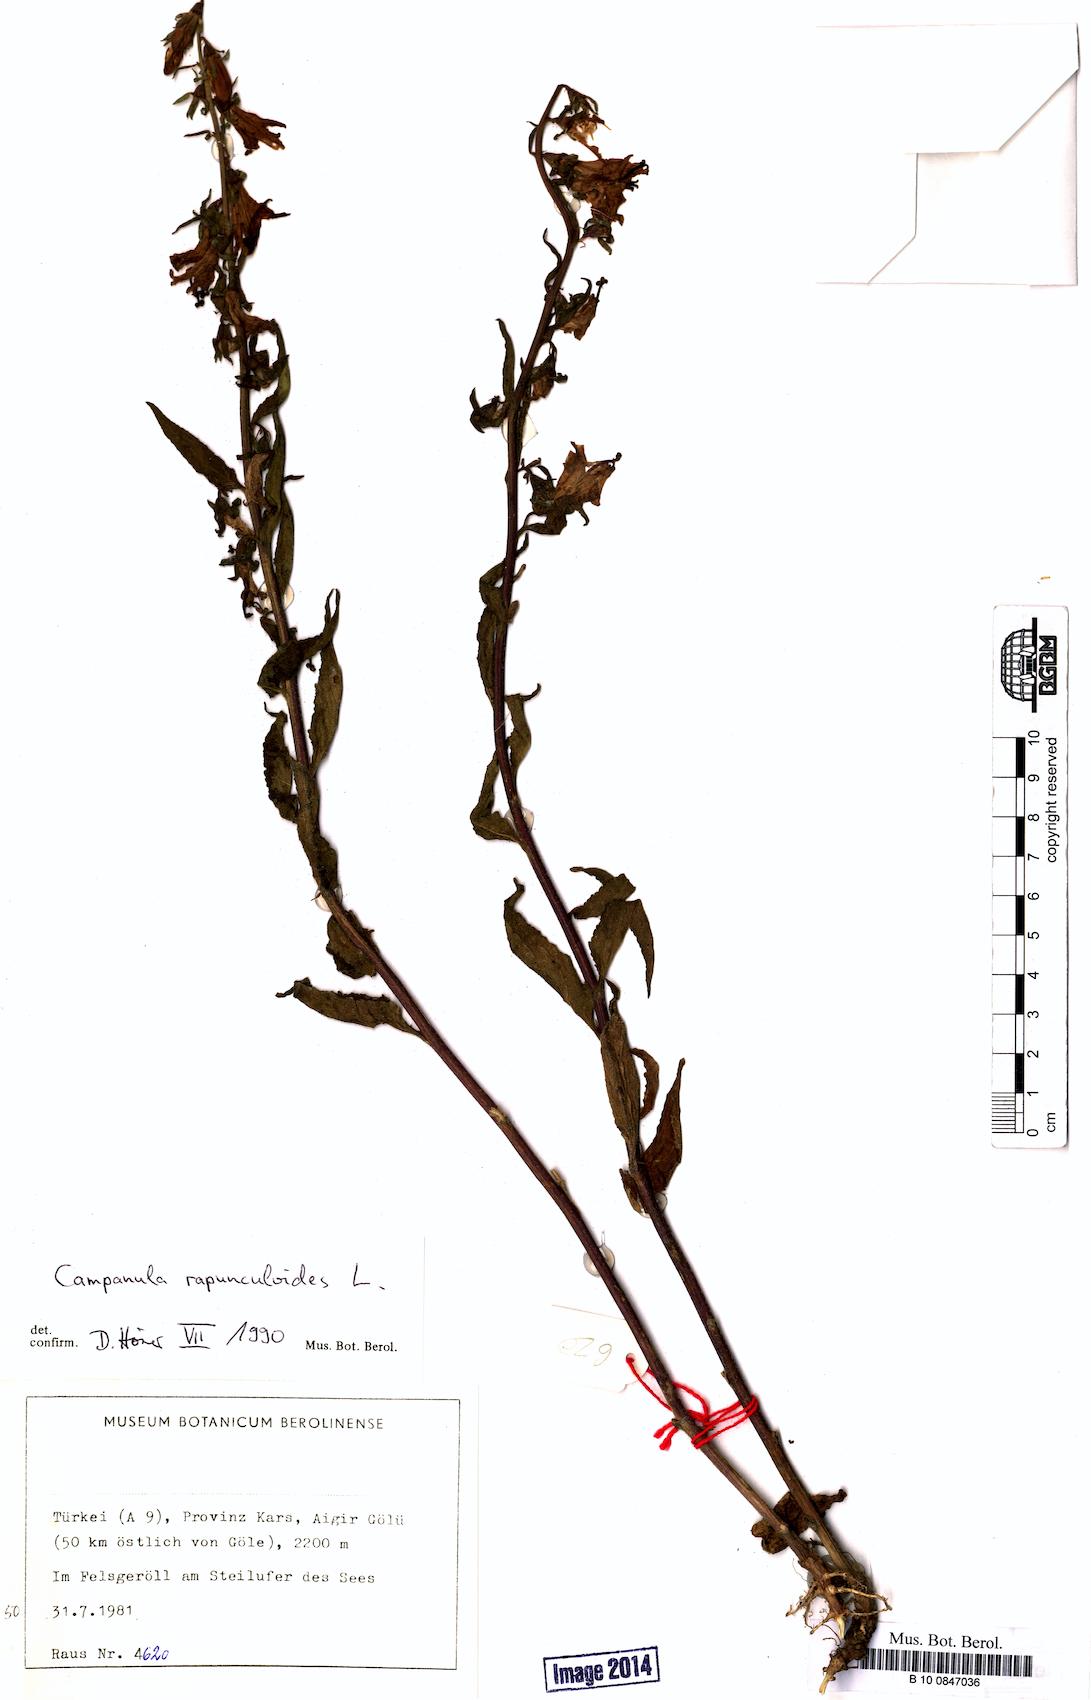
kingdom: Plantae
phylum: Tracheophyta
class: Magnoliopsida
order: Asterales
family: Campanulaceae
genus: Campanula
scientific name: Campanula rapunculoides
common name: Creeping bellflower
